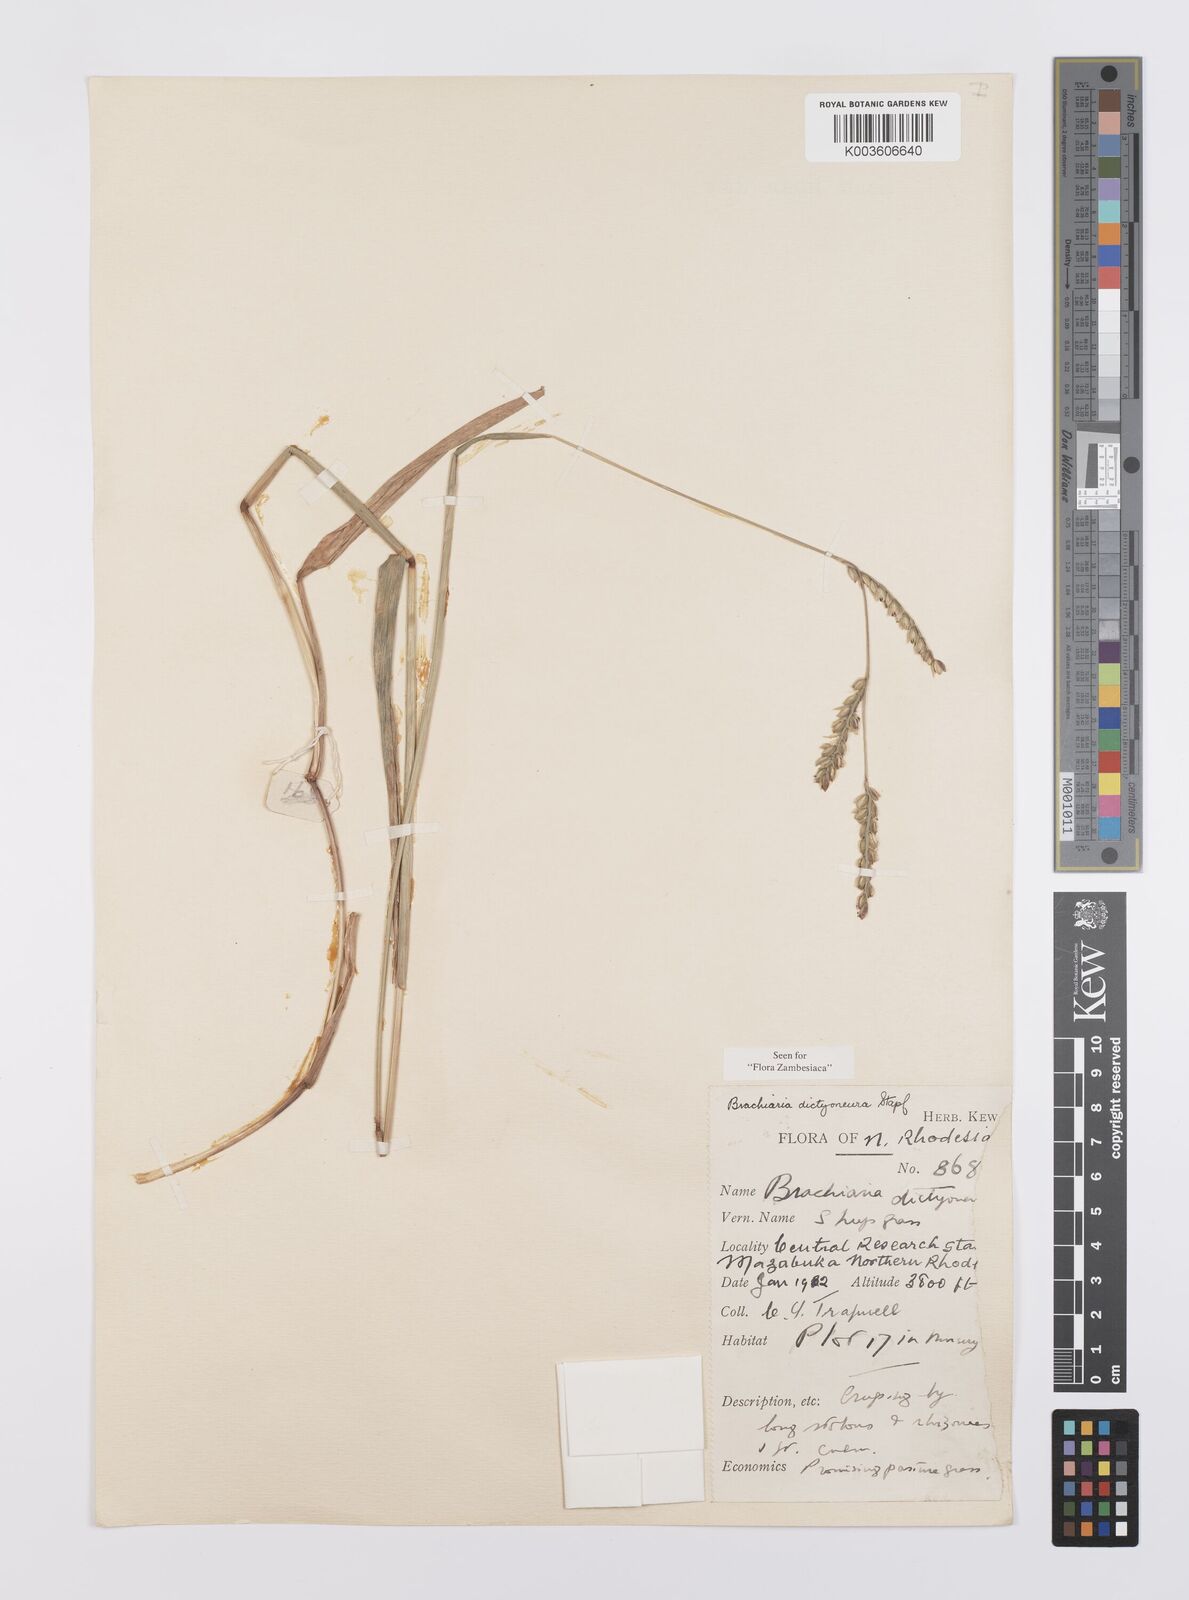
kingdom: Plantae
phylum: Tracheophyta
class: Liliopsida
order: Poales
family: Poaceae
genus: Urochloa
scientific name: Urochloa dictyoneura
